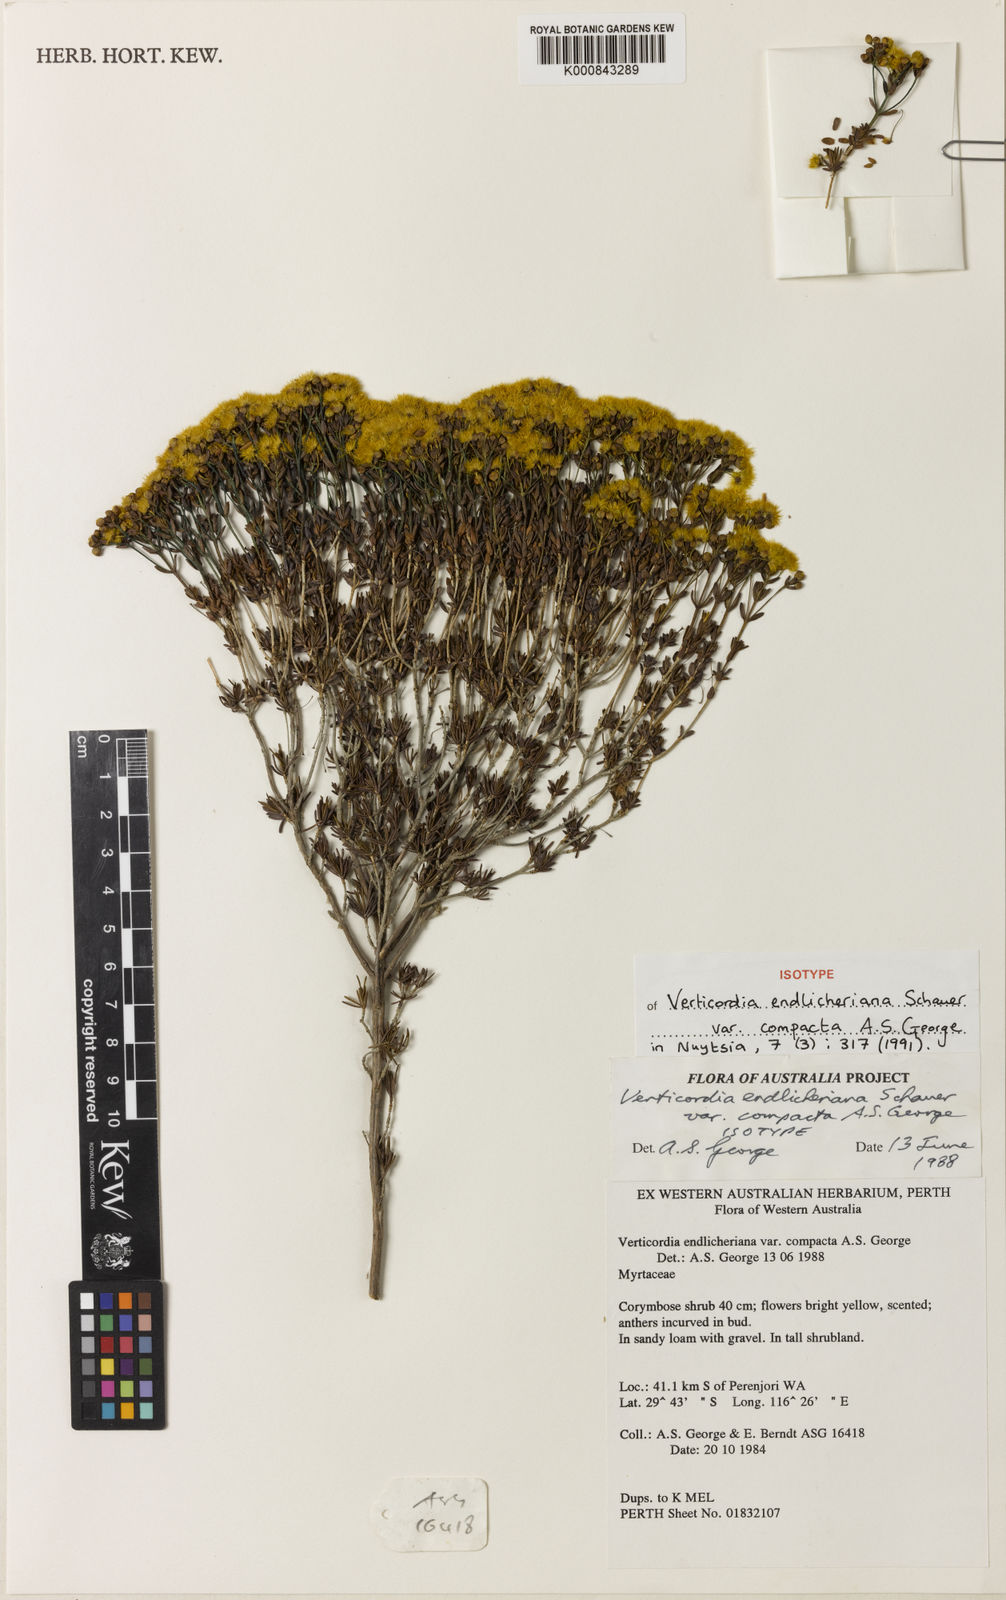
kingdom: Plantae
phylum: Tracheophyta
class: Magnoliopsida
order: Myrtales
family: Myrtaceae
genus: Verticordia
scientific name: Verticordia endlicheriana
